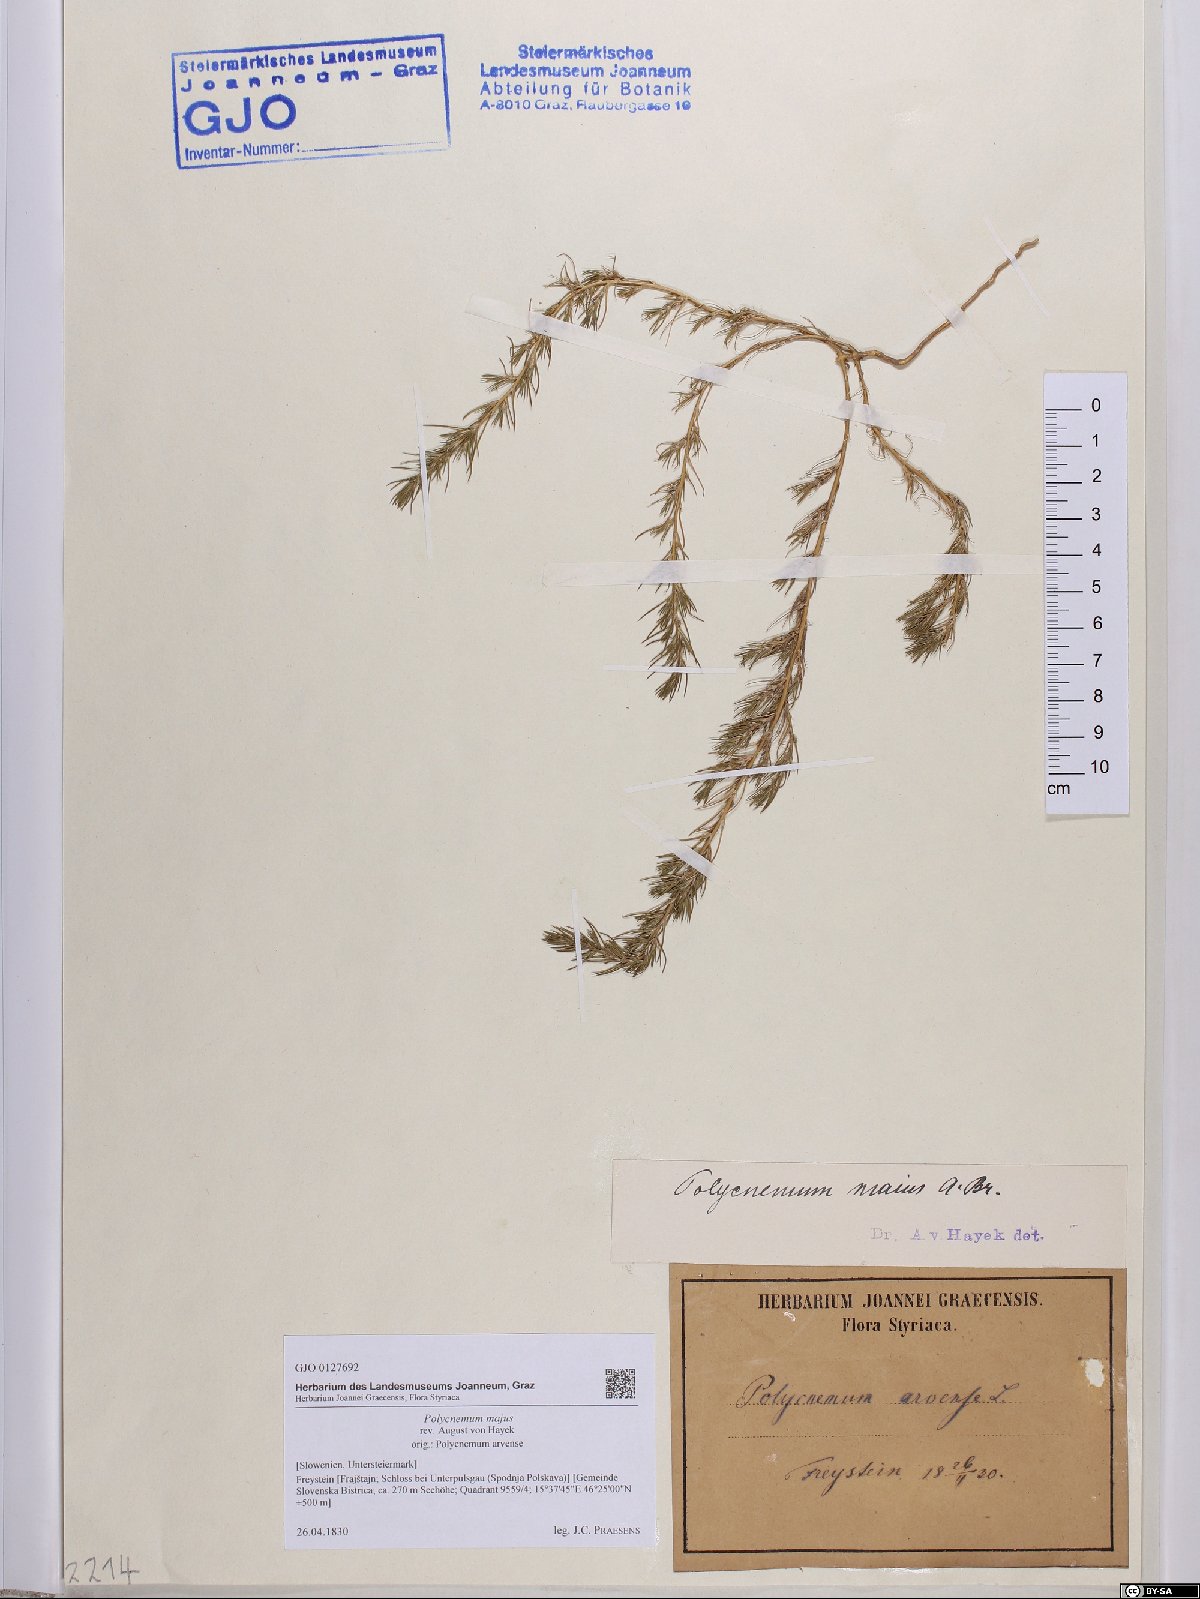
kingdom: Plantae
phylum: Tracheophyta
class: Magnoliopsida
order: Caryophyllales
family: Amaranthaceae
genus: Polycnemum
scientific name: Polycnemum majus
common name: Giant needleleaf
